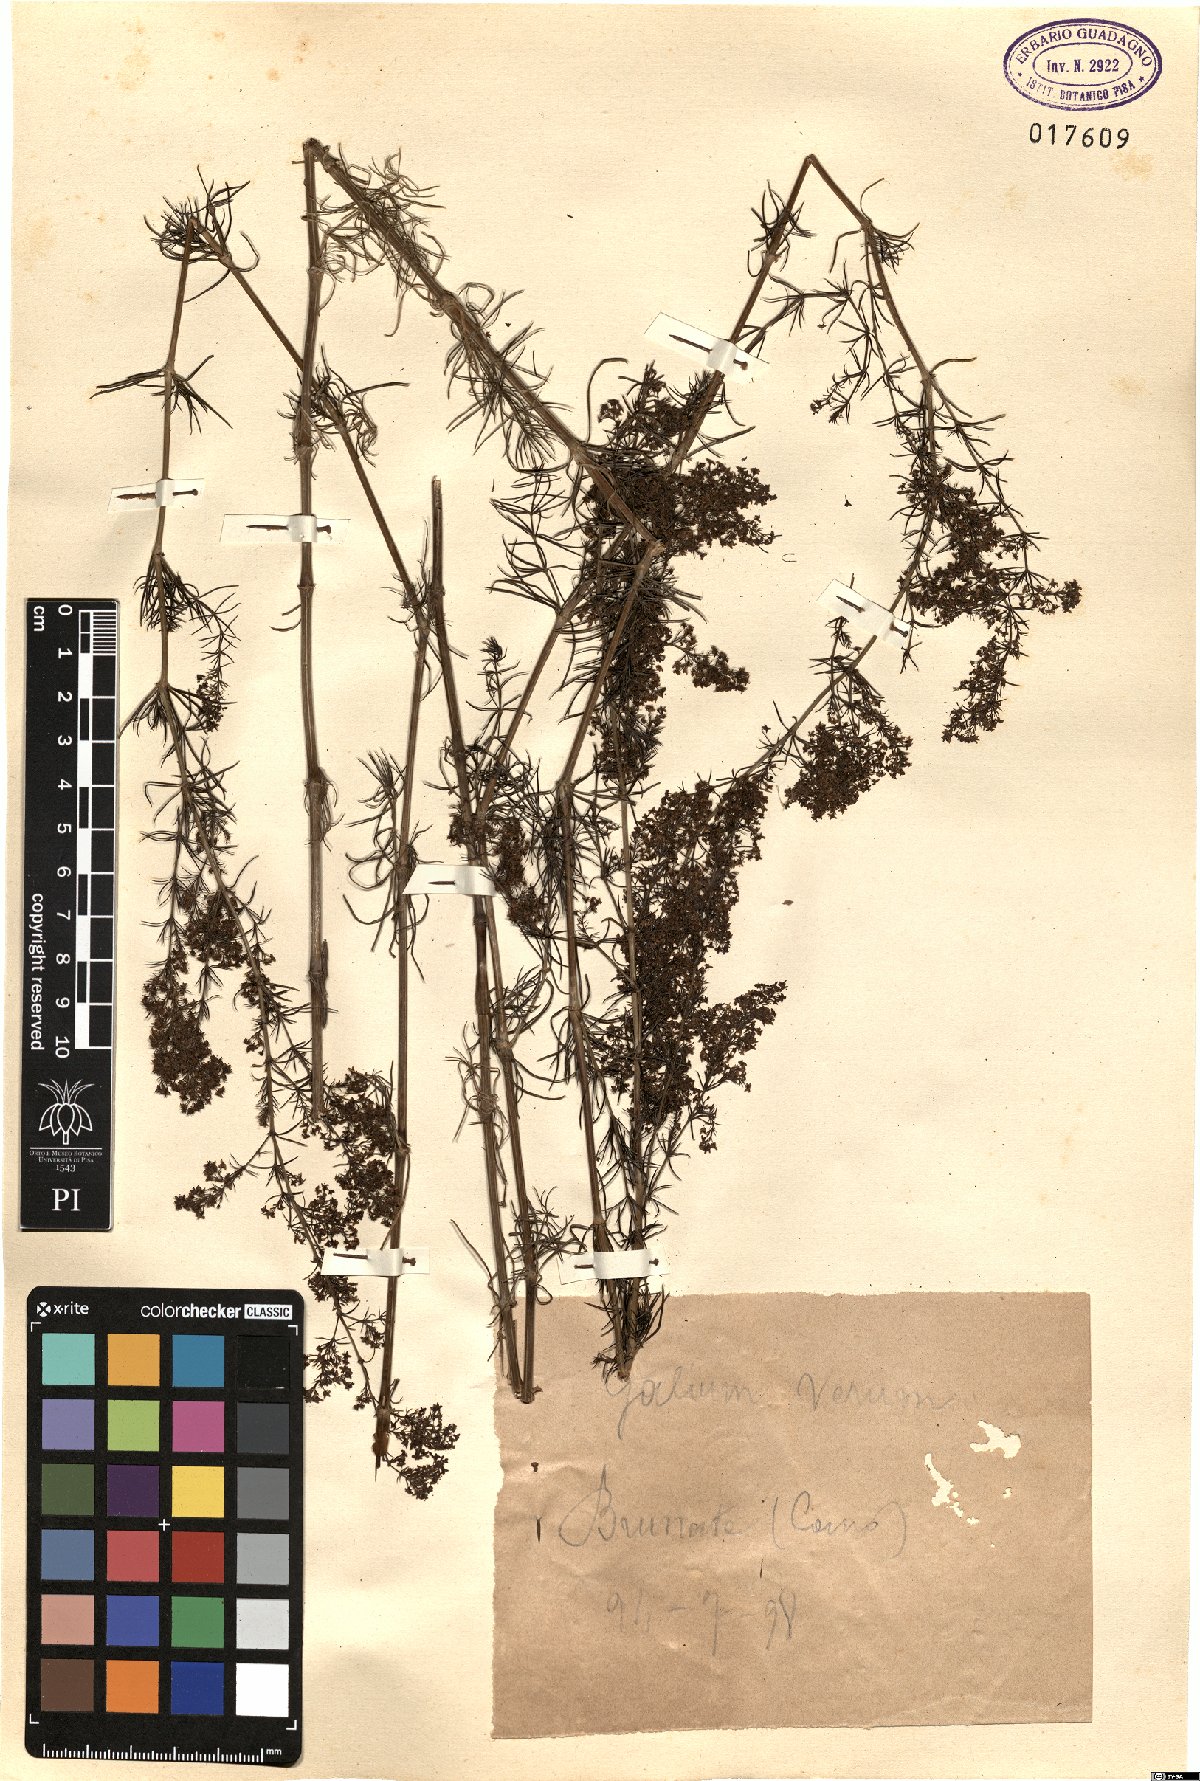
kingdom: Plantae
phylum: Tracheophyta
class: Magnoliopsida
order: Gentianales
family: Rubiaceae
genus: Galium
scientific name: Galium verum
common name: Lady's bedstraw
